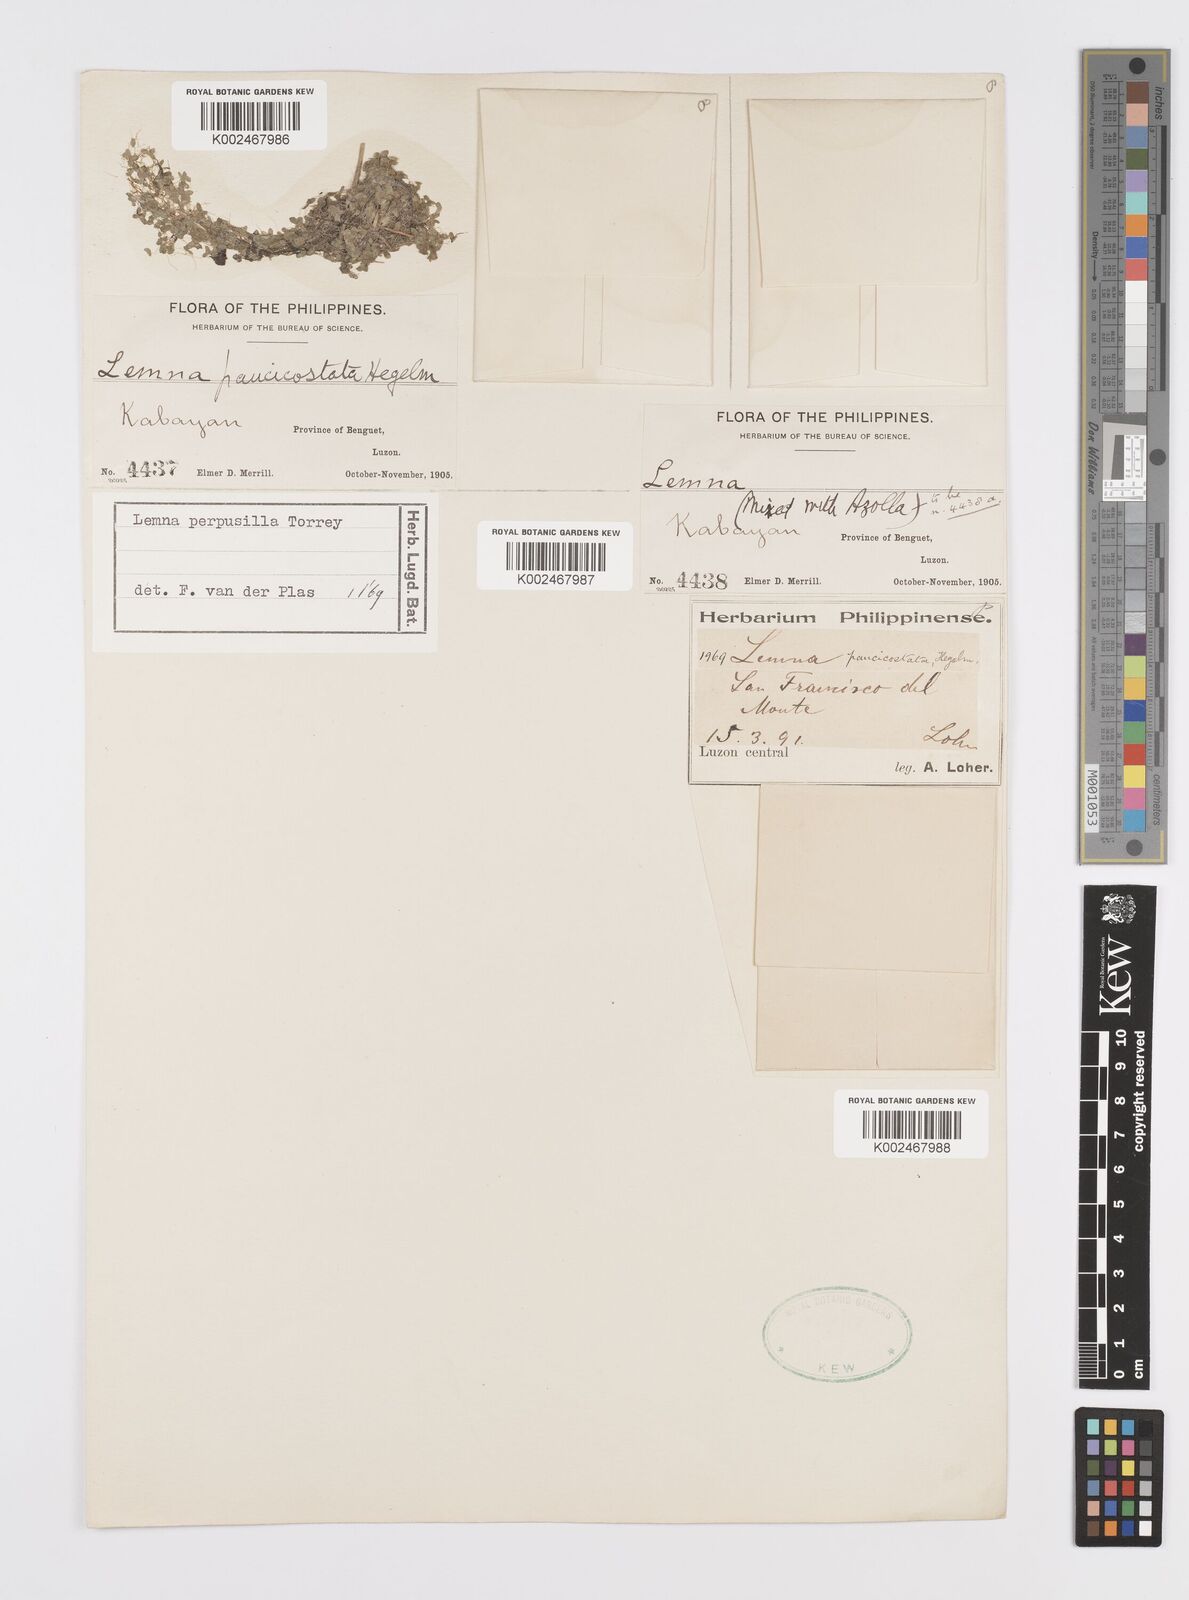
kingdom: Plantae
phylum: Tracheophyta
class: Liliopsida
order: Alismatales
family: Araceae
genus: Lemna
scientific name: Lemna perpusilla
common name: Duckweed
